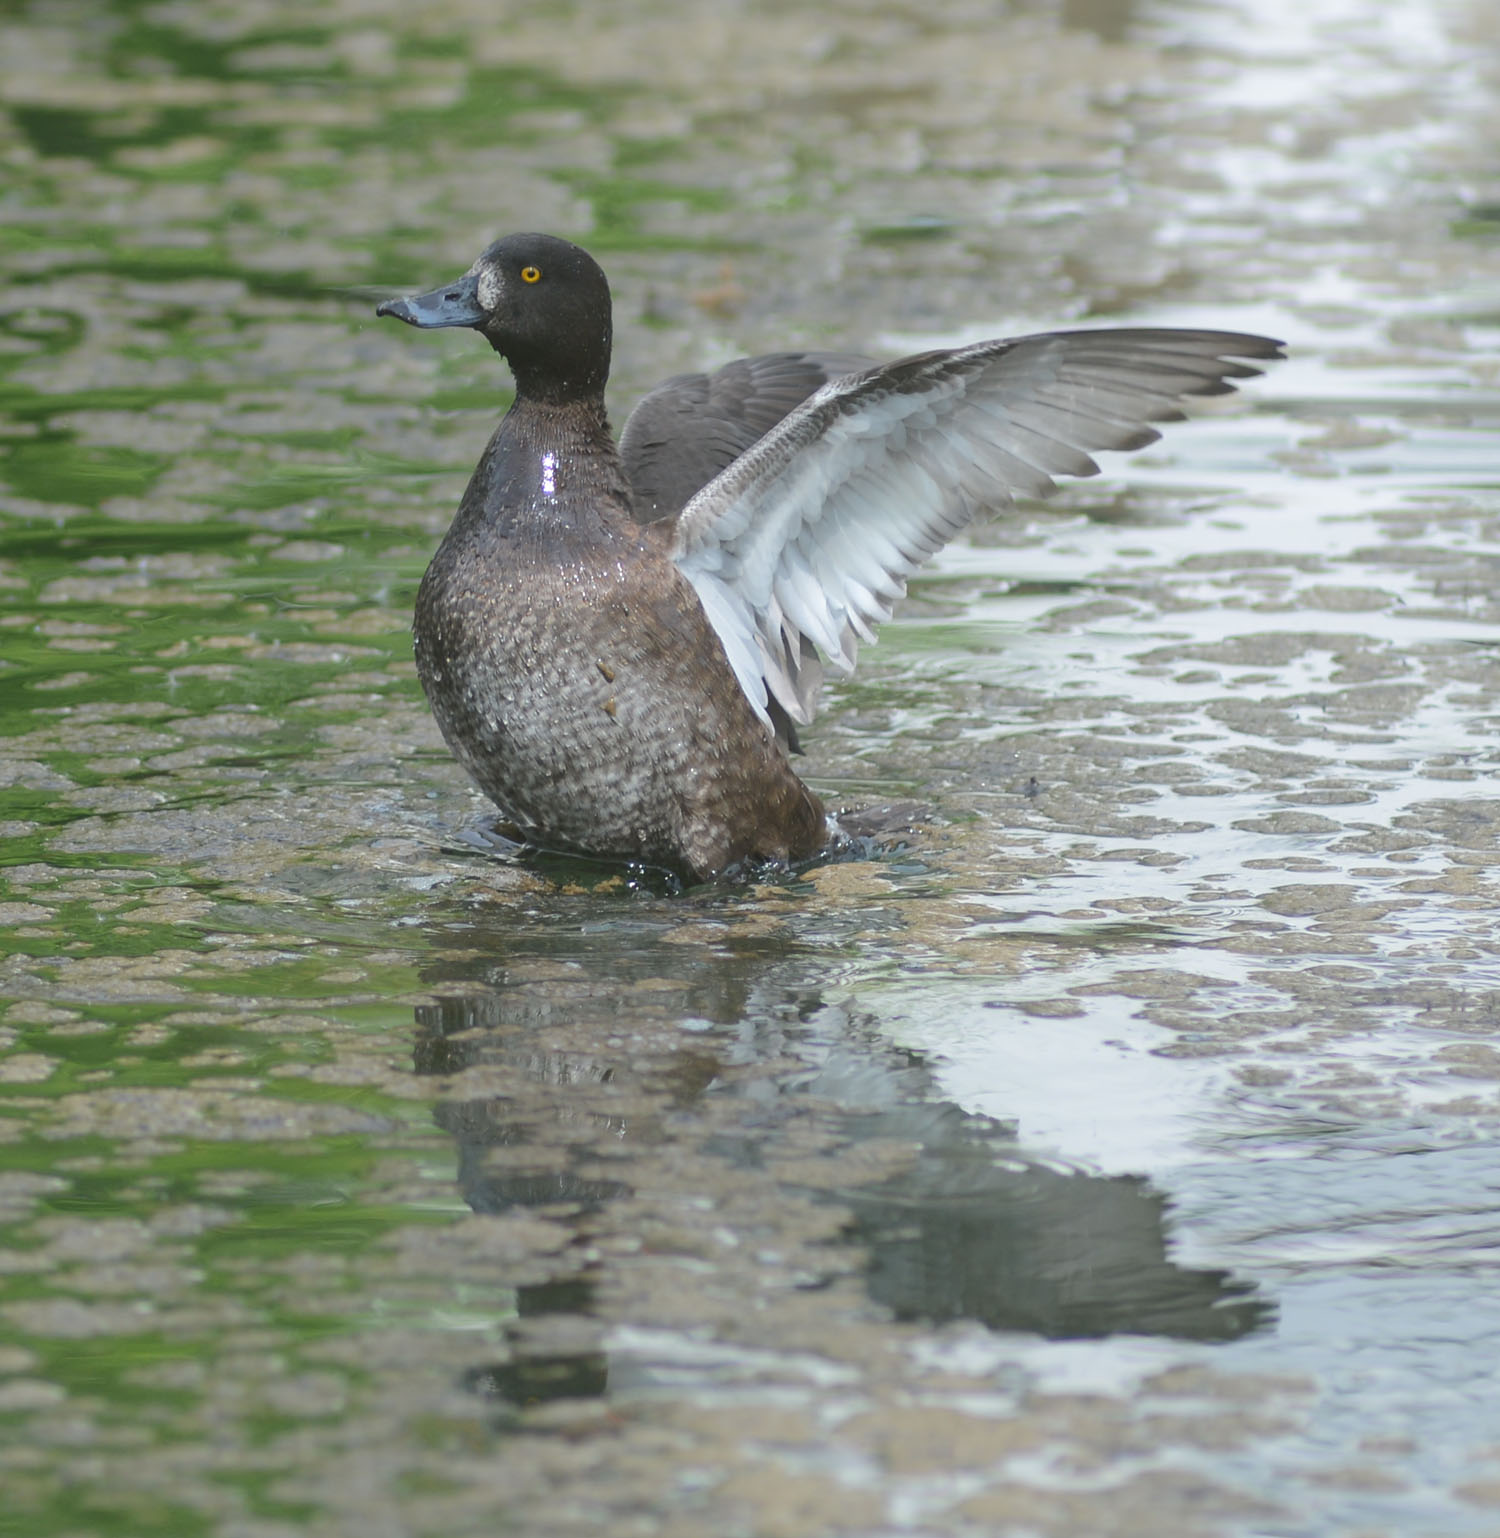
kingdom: Animalia
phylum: Chordata
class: Aves
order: Anseriformes
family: Anatidae
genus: Aythya
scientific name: Aythya fuligula
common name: Tufted duck
